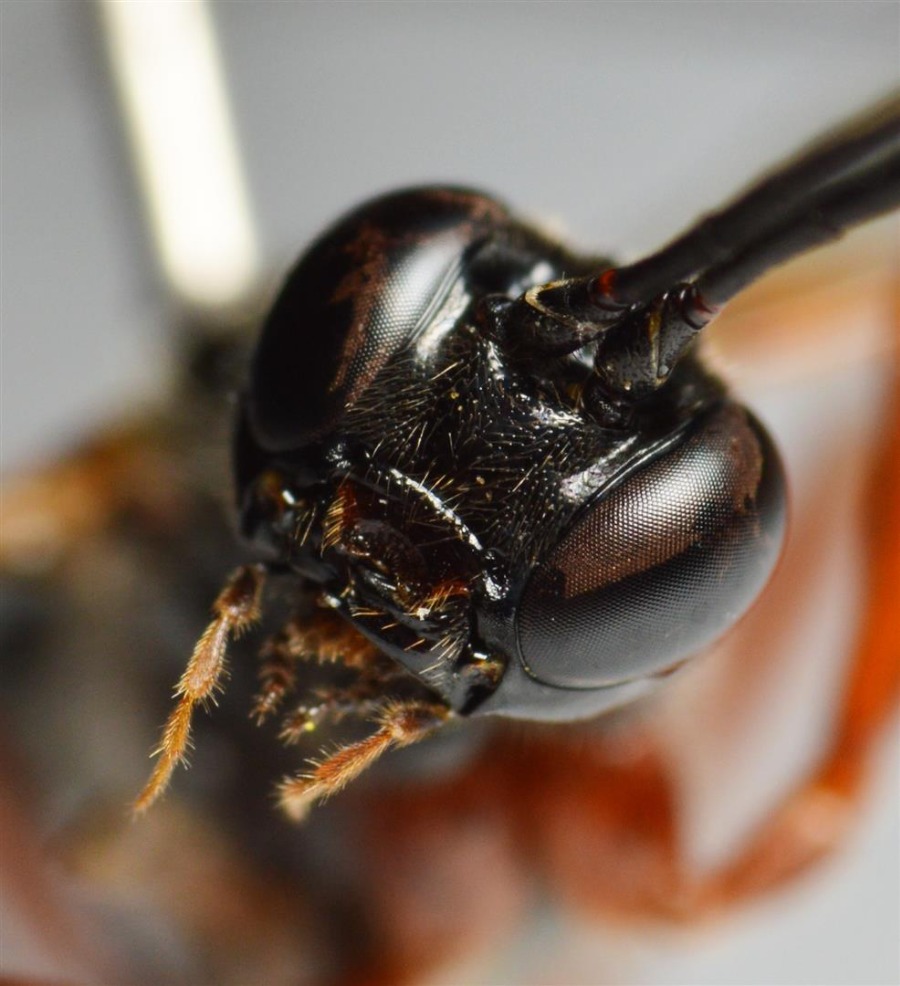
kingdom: Animalia
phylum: Arthropoda
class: Insecta
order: Hymenoptera
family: Ichneumonidae
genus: Dolichomitus
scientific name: Dolichomitus quercicolus
